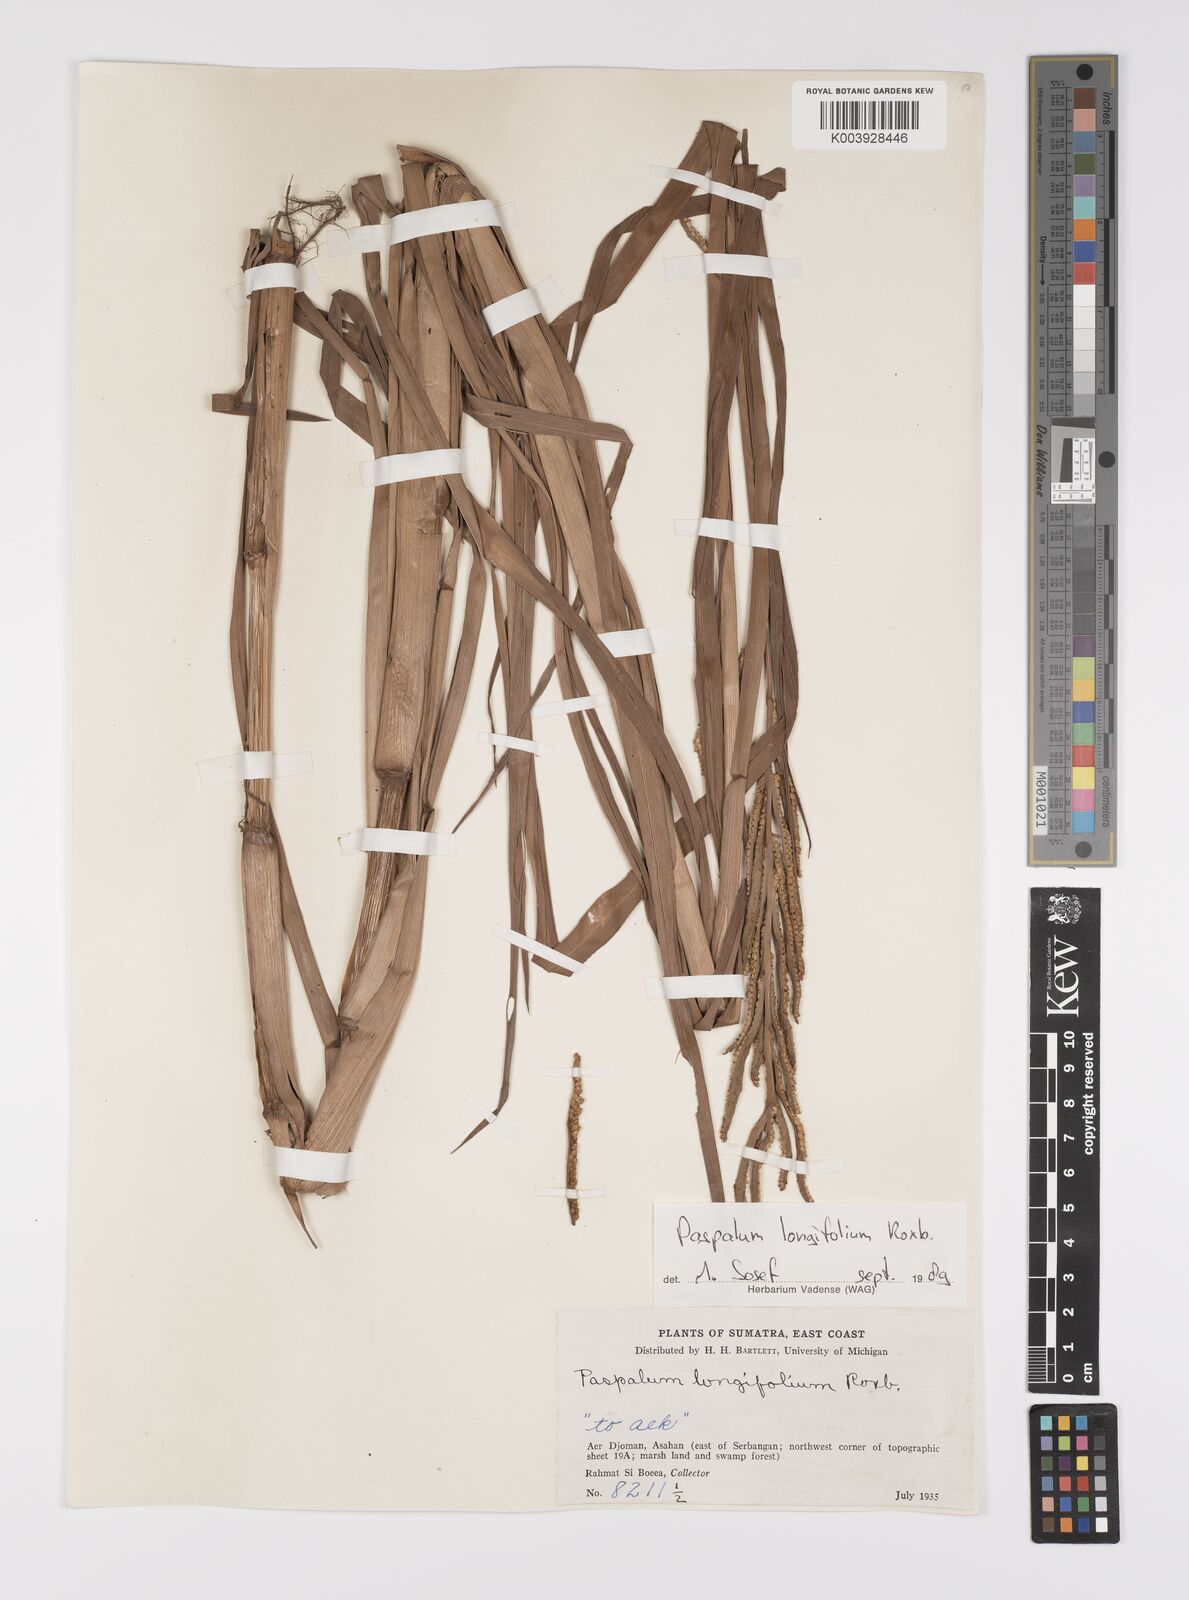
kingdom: Plantae
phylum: Tracheophyta
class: Liliopsida
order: Poales
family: Poaceae
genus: Paspalum
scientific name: Paspalum sumatrense
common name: Long-leaved paspalum
